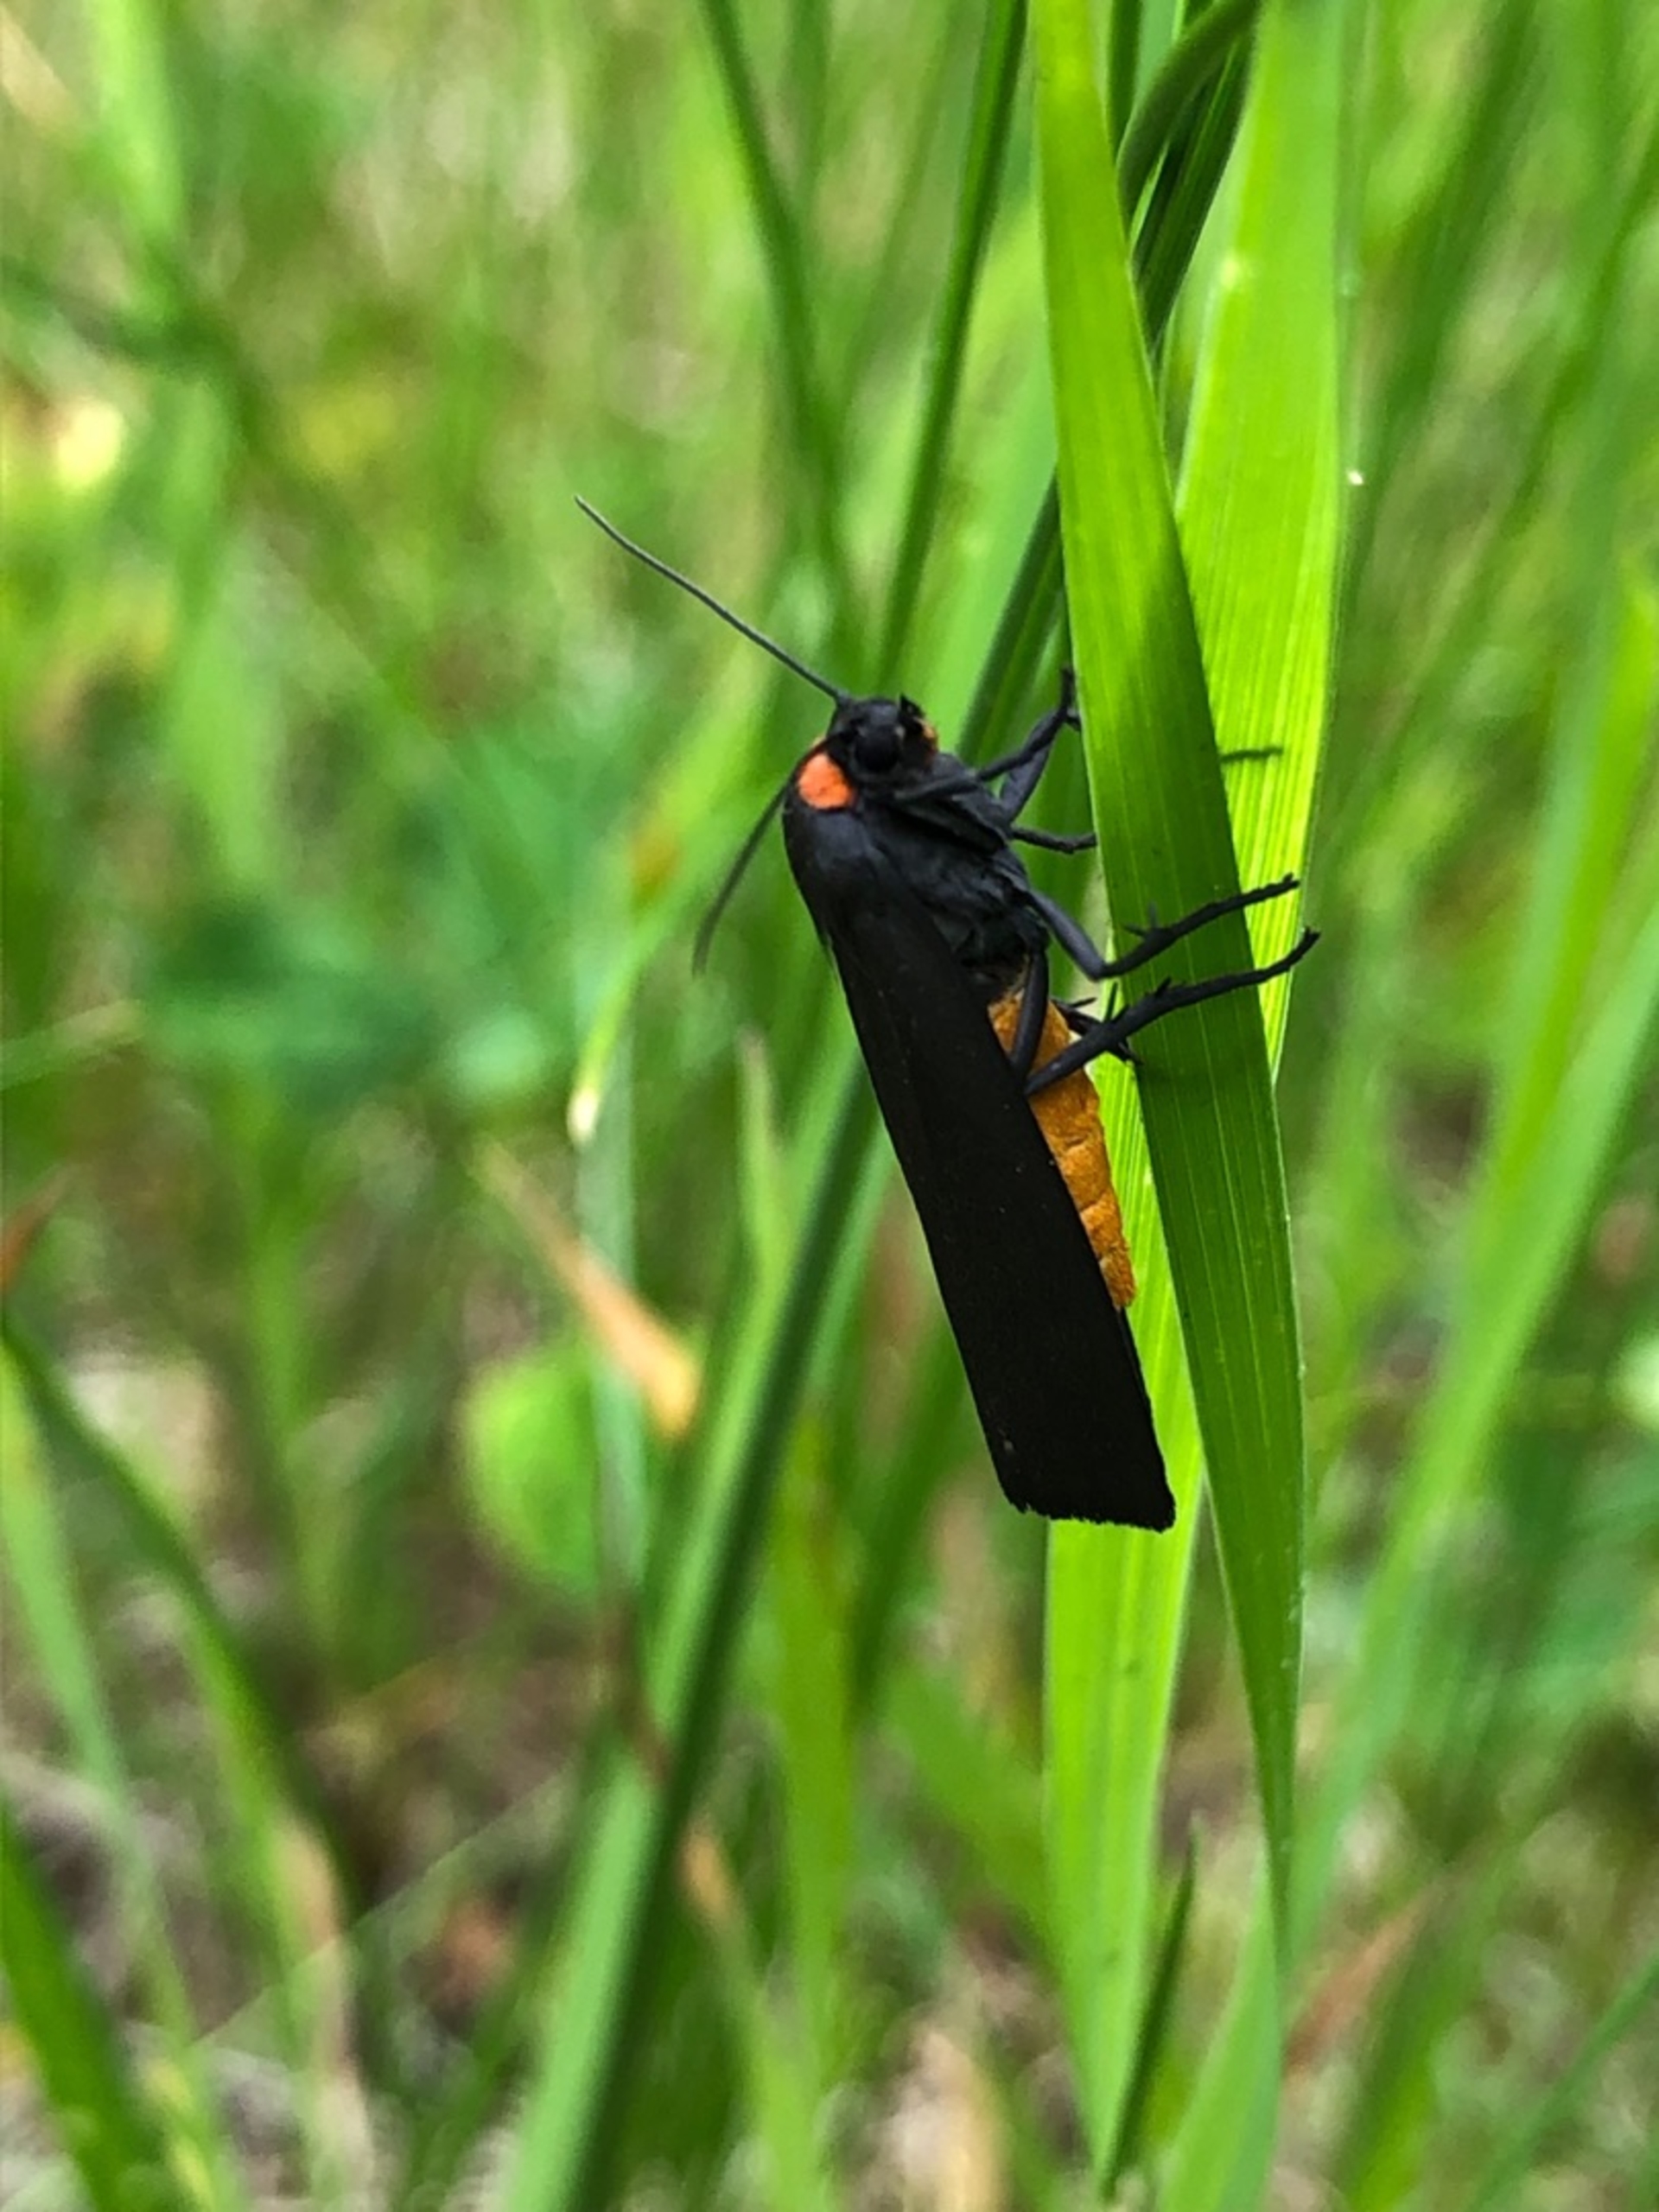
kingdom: Animalia
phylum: Arthropoda
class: Insecta
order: Lepidoptera
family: Erebidae
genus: Atolmis
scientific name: Atolmis rubricollis
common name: Blodnakke
